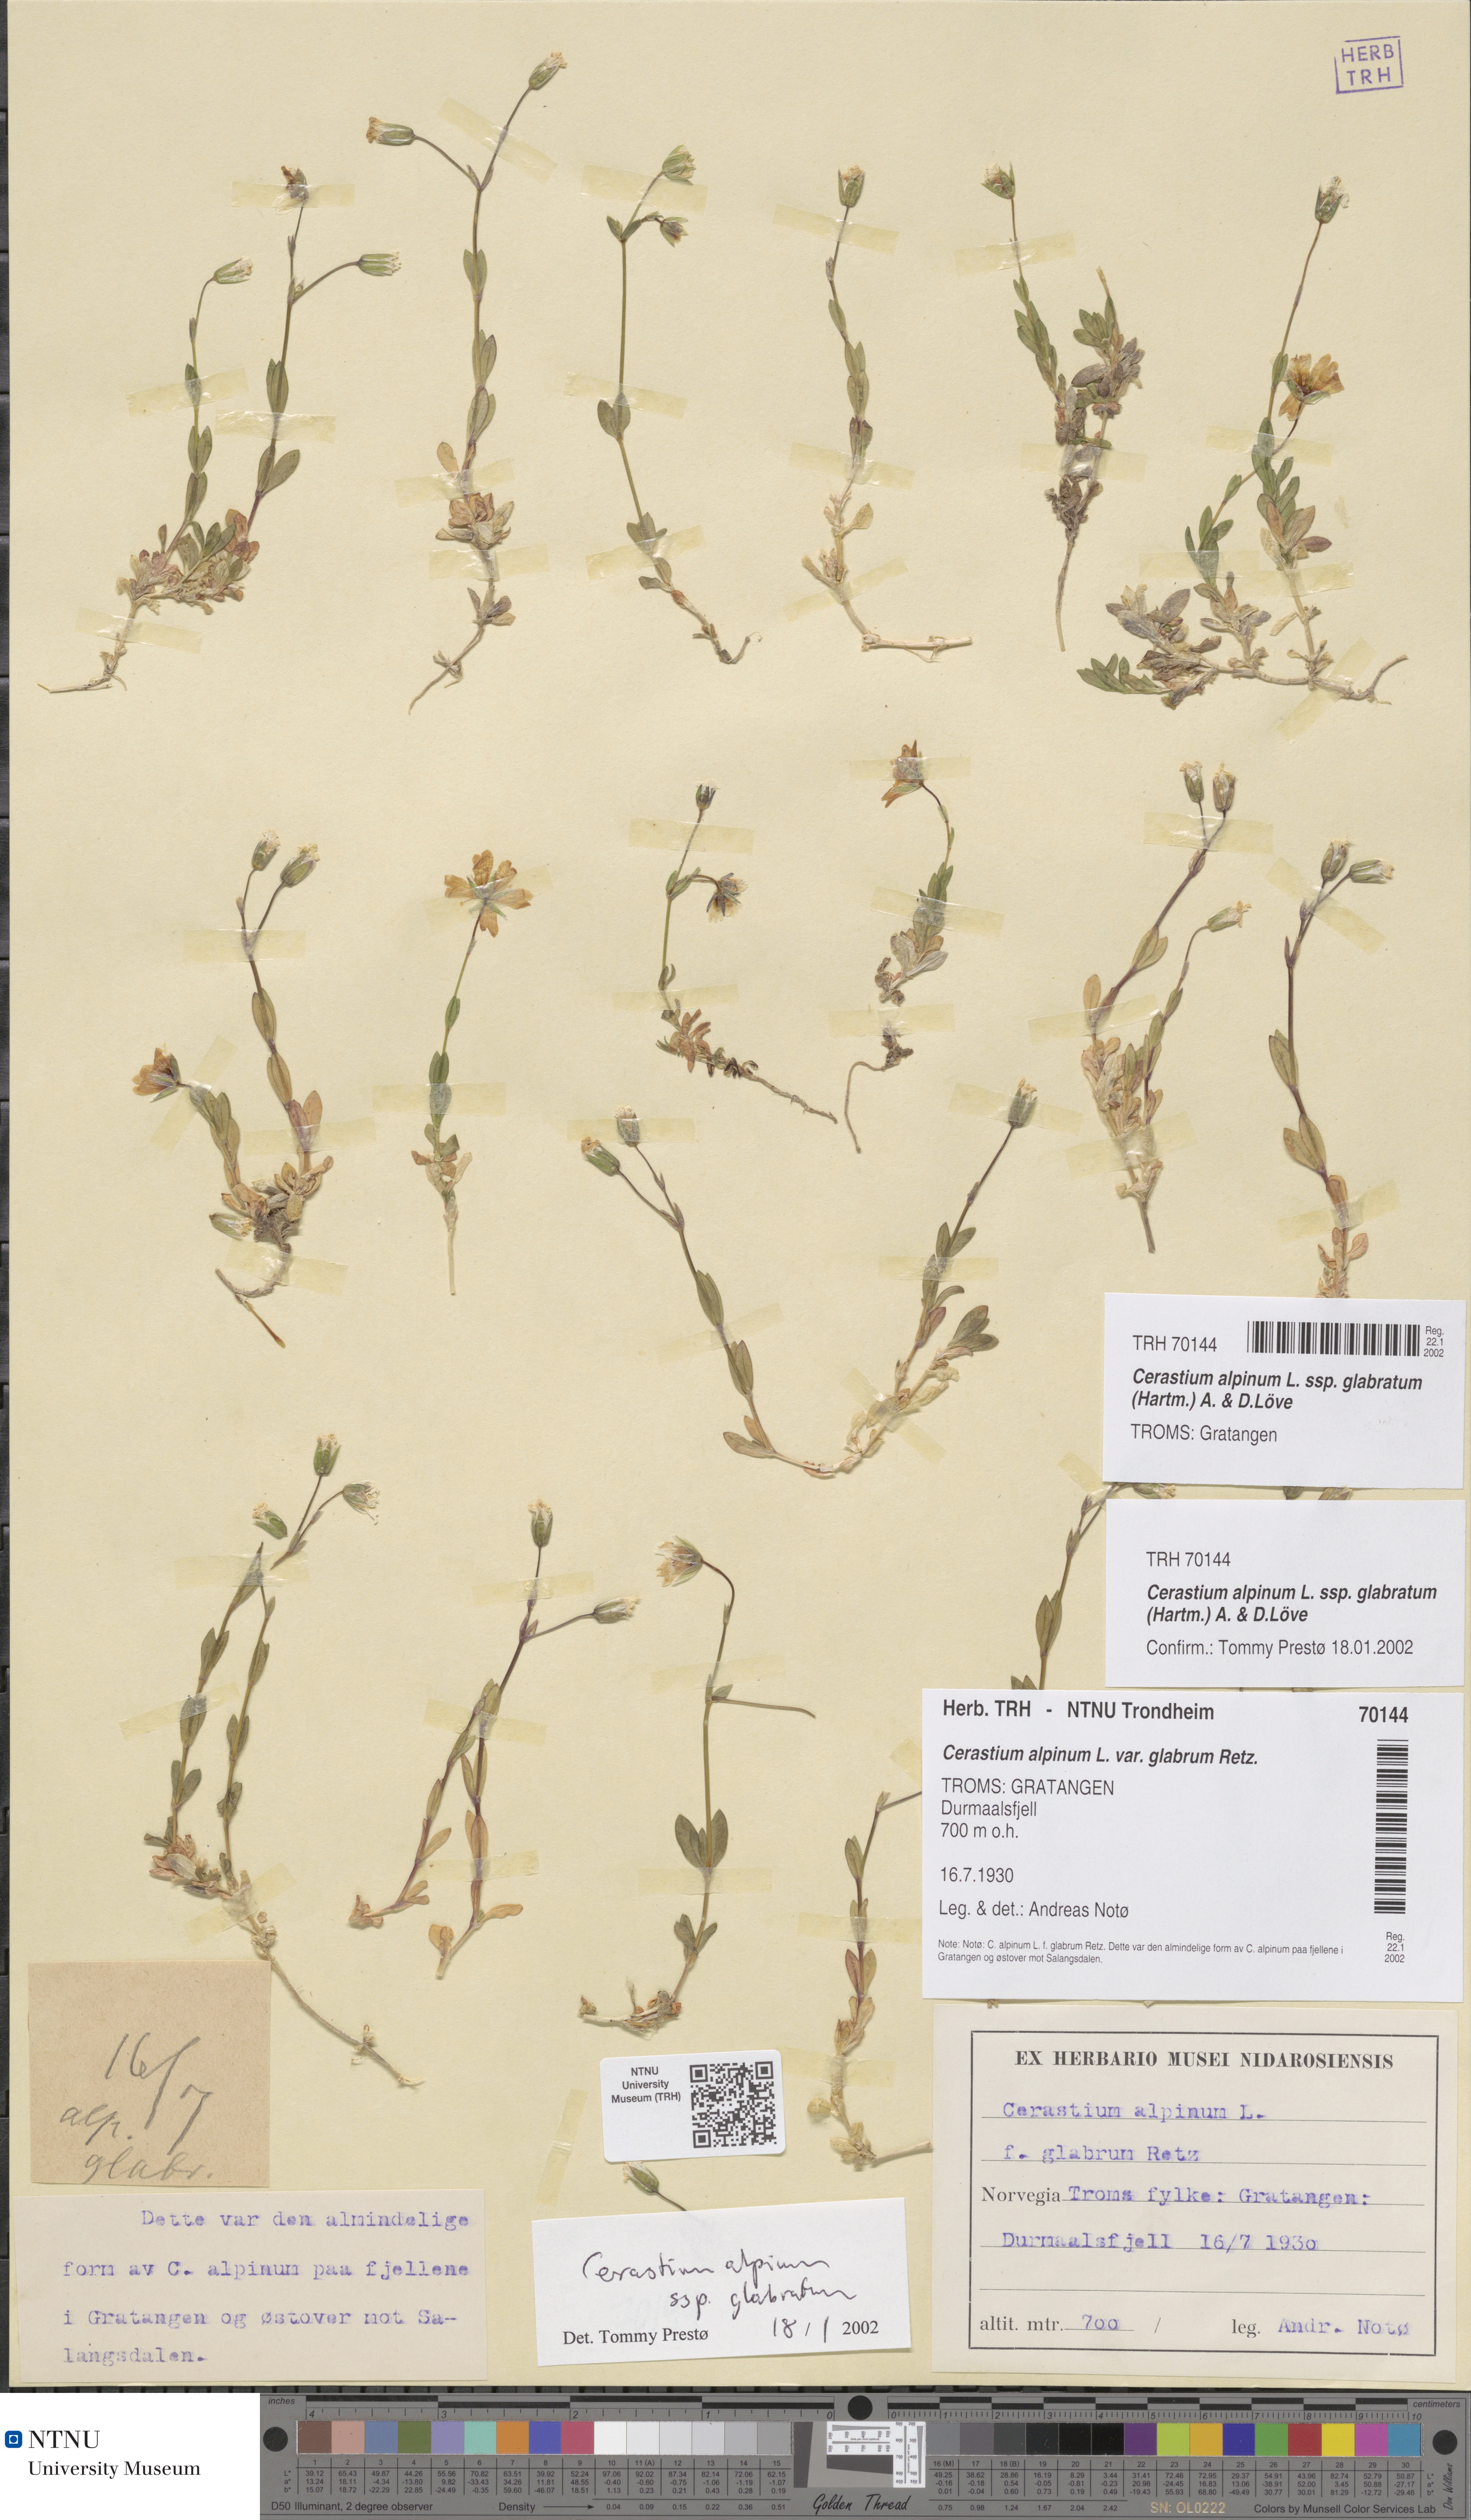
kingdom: Plantae
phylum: Tracheophyta
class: Magnoliopsida
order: Caryophyllales
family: Caryophyllaceae
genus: Cerastium
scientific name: Cerastium alpinum
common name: Alpine mouse-ear
